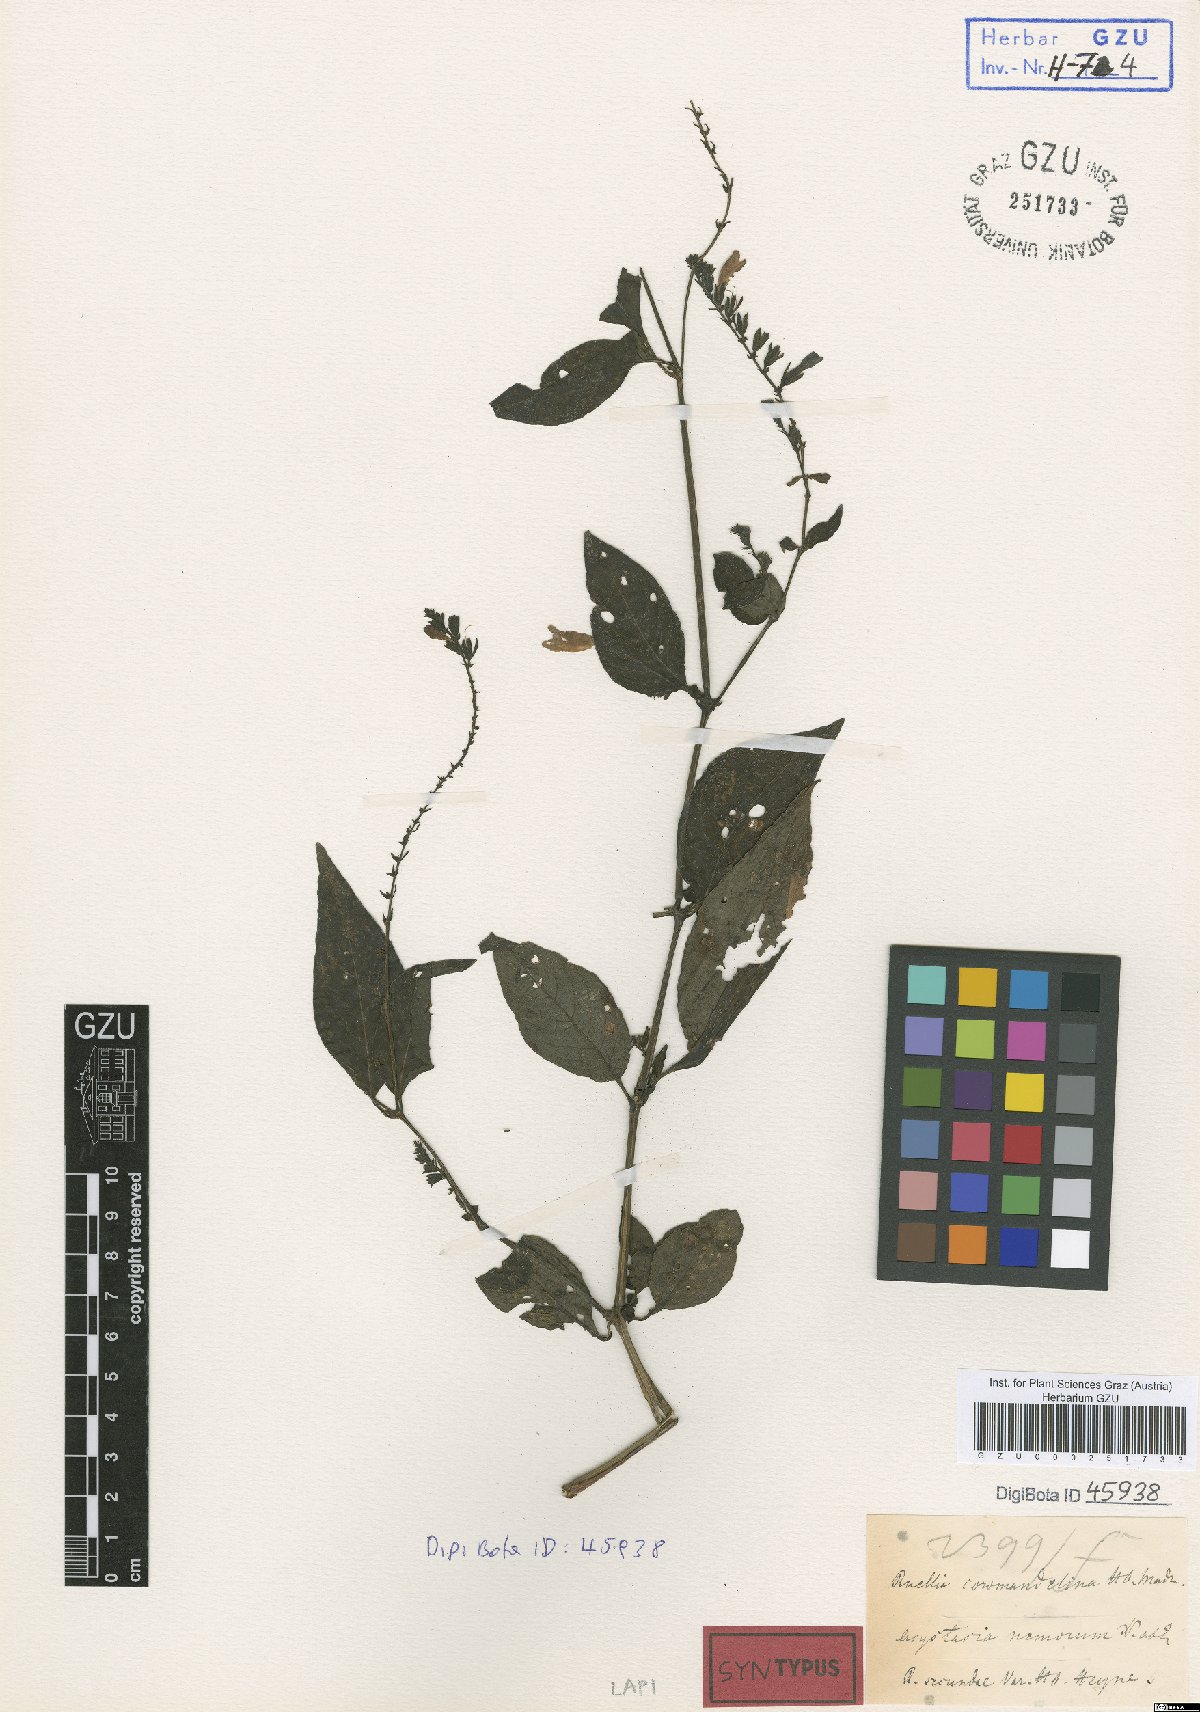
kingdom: Plantae
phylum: Tracheophyta
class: Magnoliopsida
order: Lamiales
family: Acanthaceae
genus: Asystasia
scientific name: Asystasia nemorum
